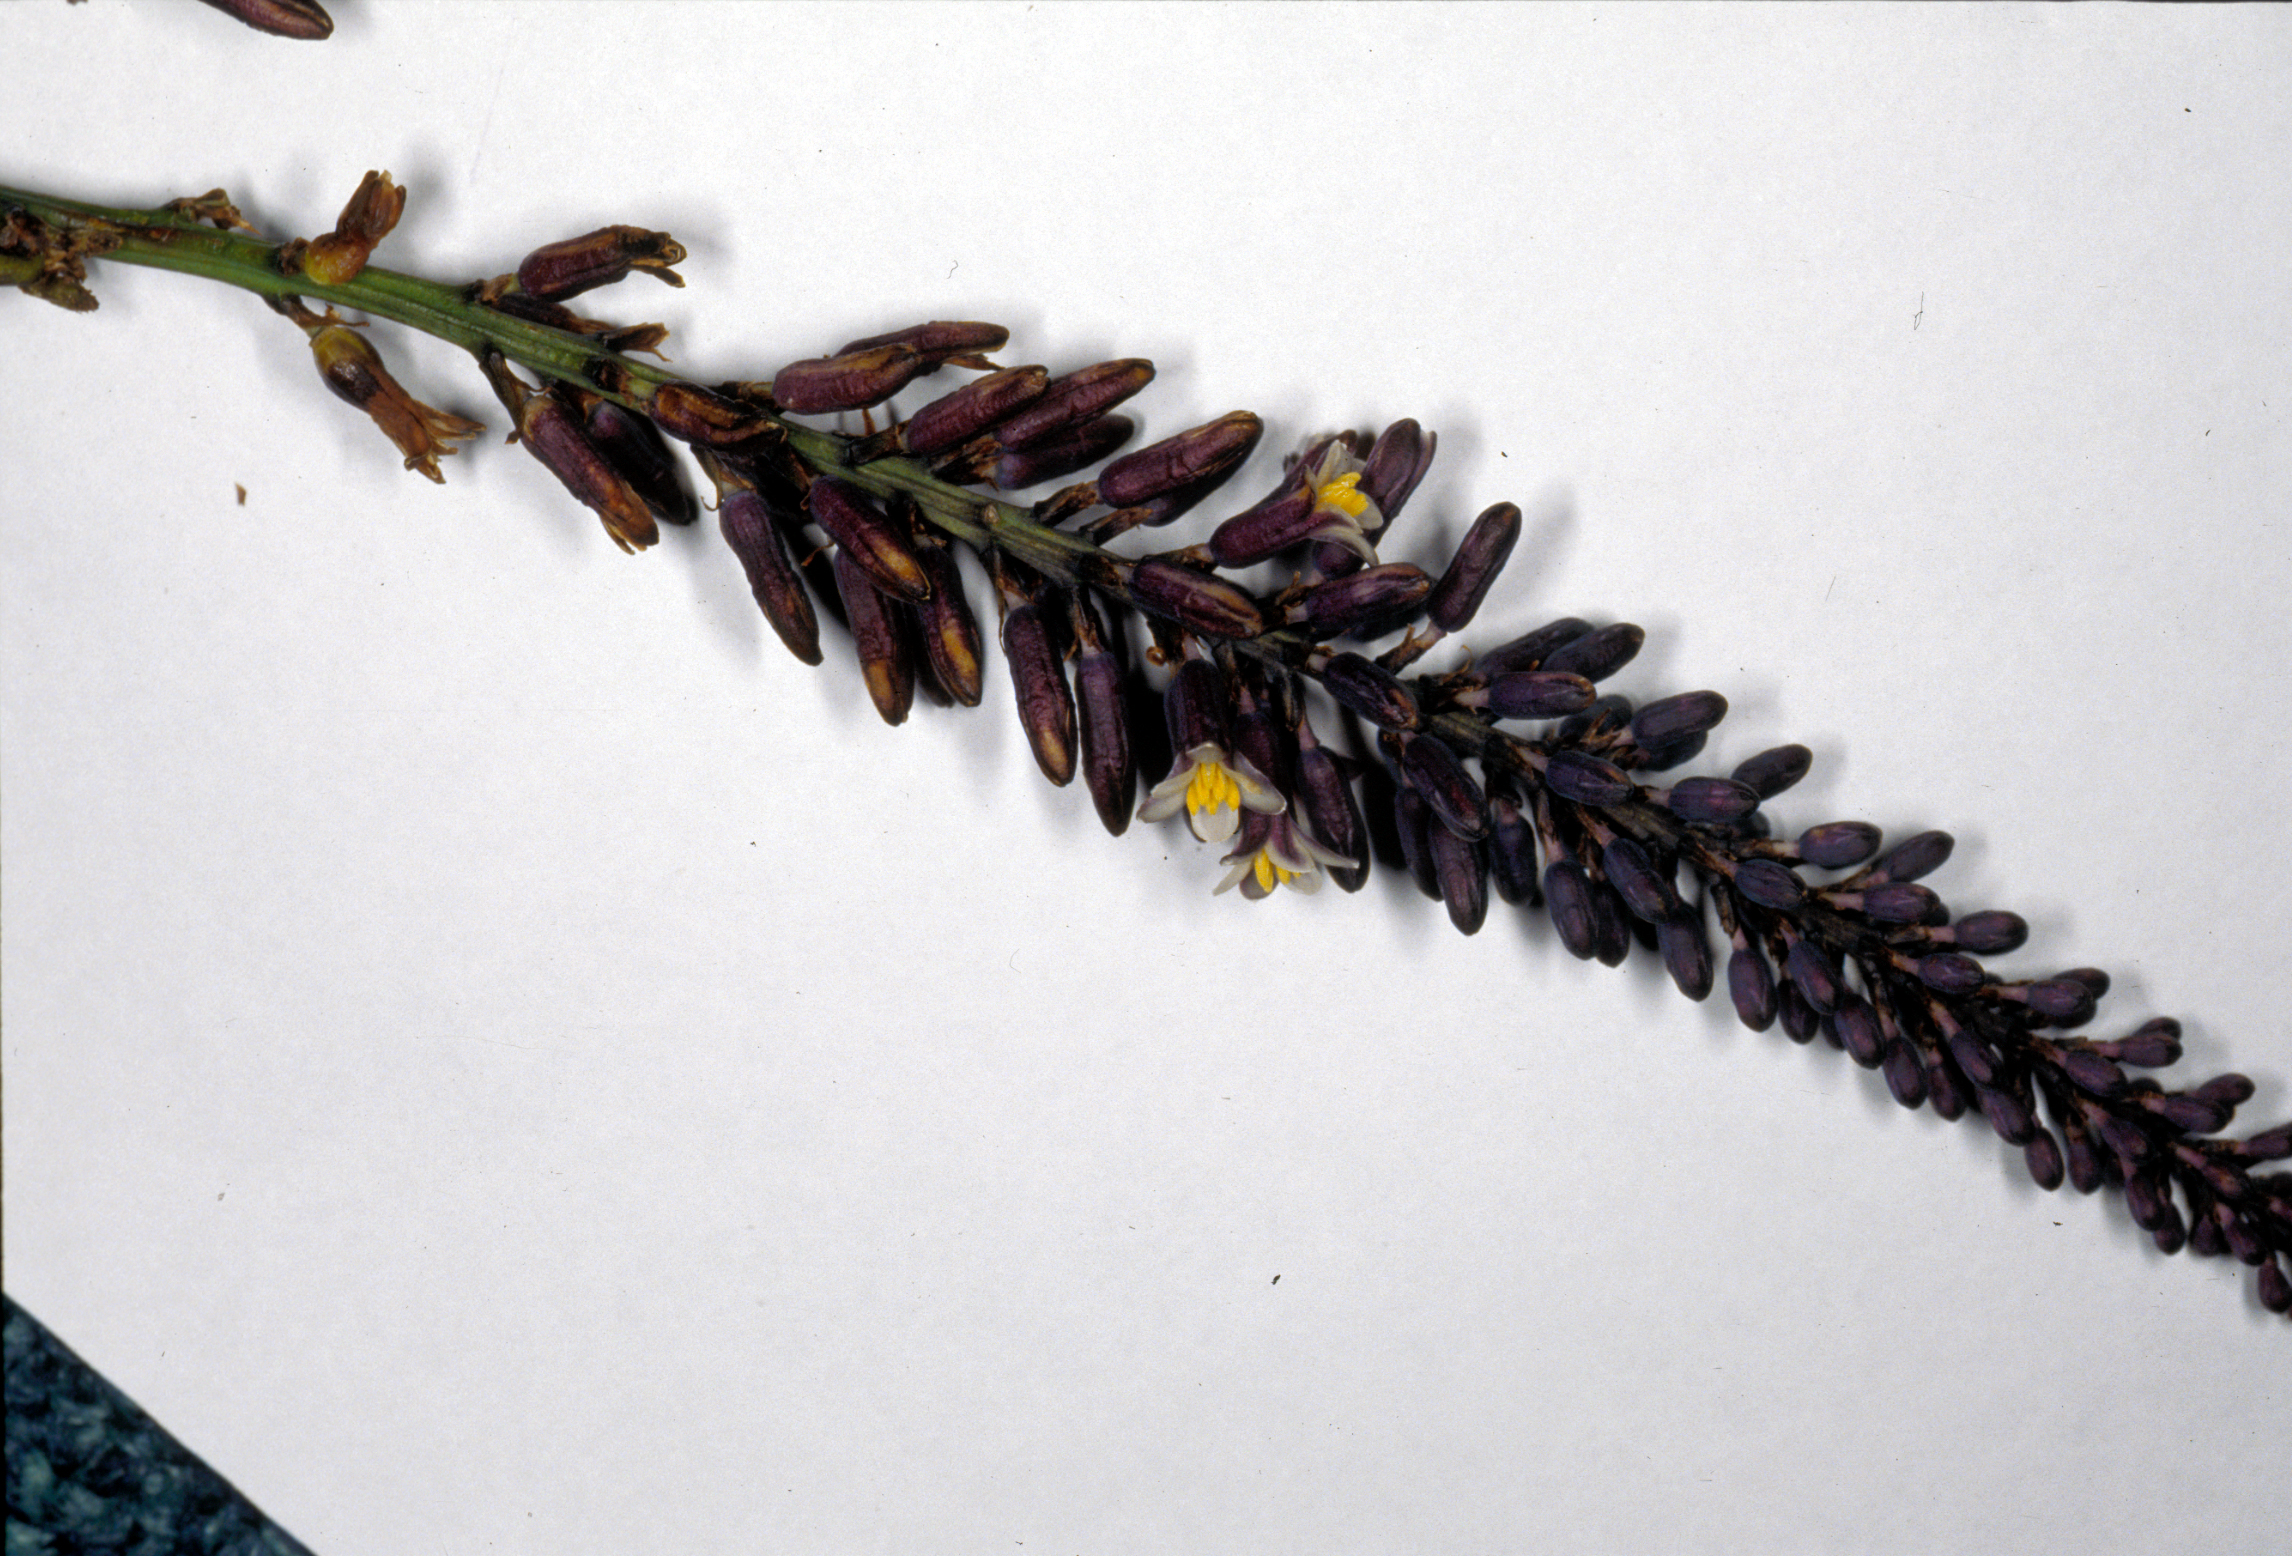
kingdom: Plantae
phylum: Tracheophyta
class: Liliopsida
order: Asparagales
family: Asparagaceae
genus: Cordyline
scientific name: Cordyline congesta
